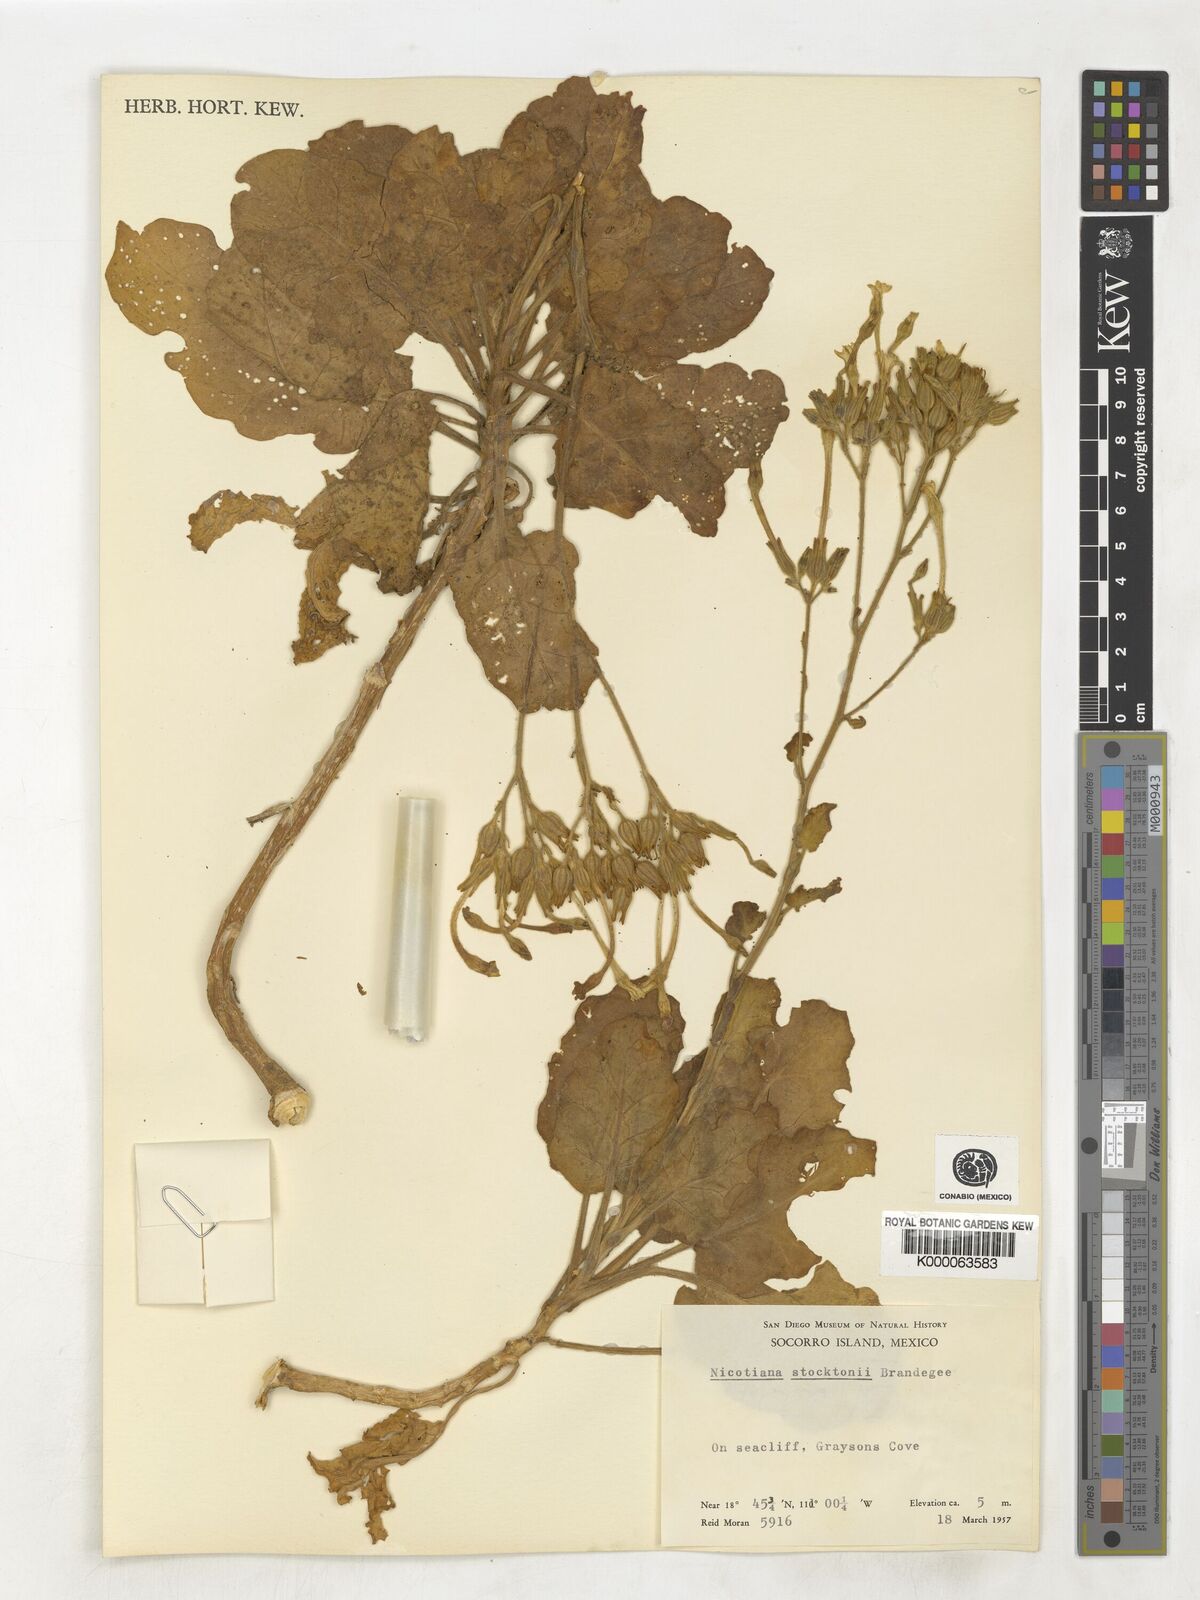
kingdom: Plantae
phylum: Tracheophyta
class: Magnoliopsida
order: Solanales
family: Solanaceae
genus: Nicotiana
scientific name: Nicotiana stocktonii
